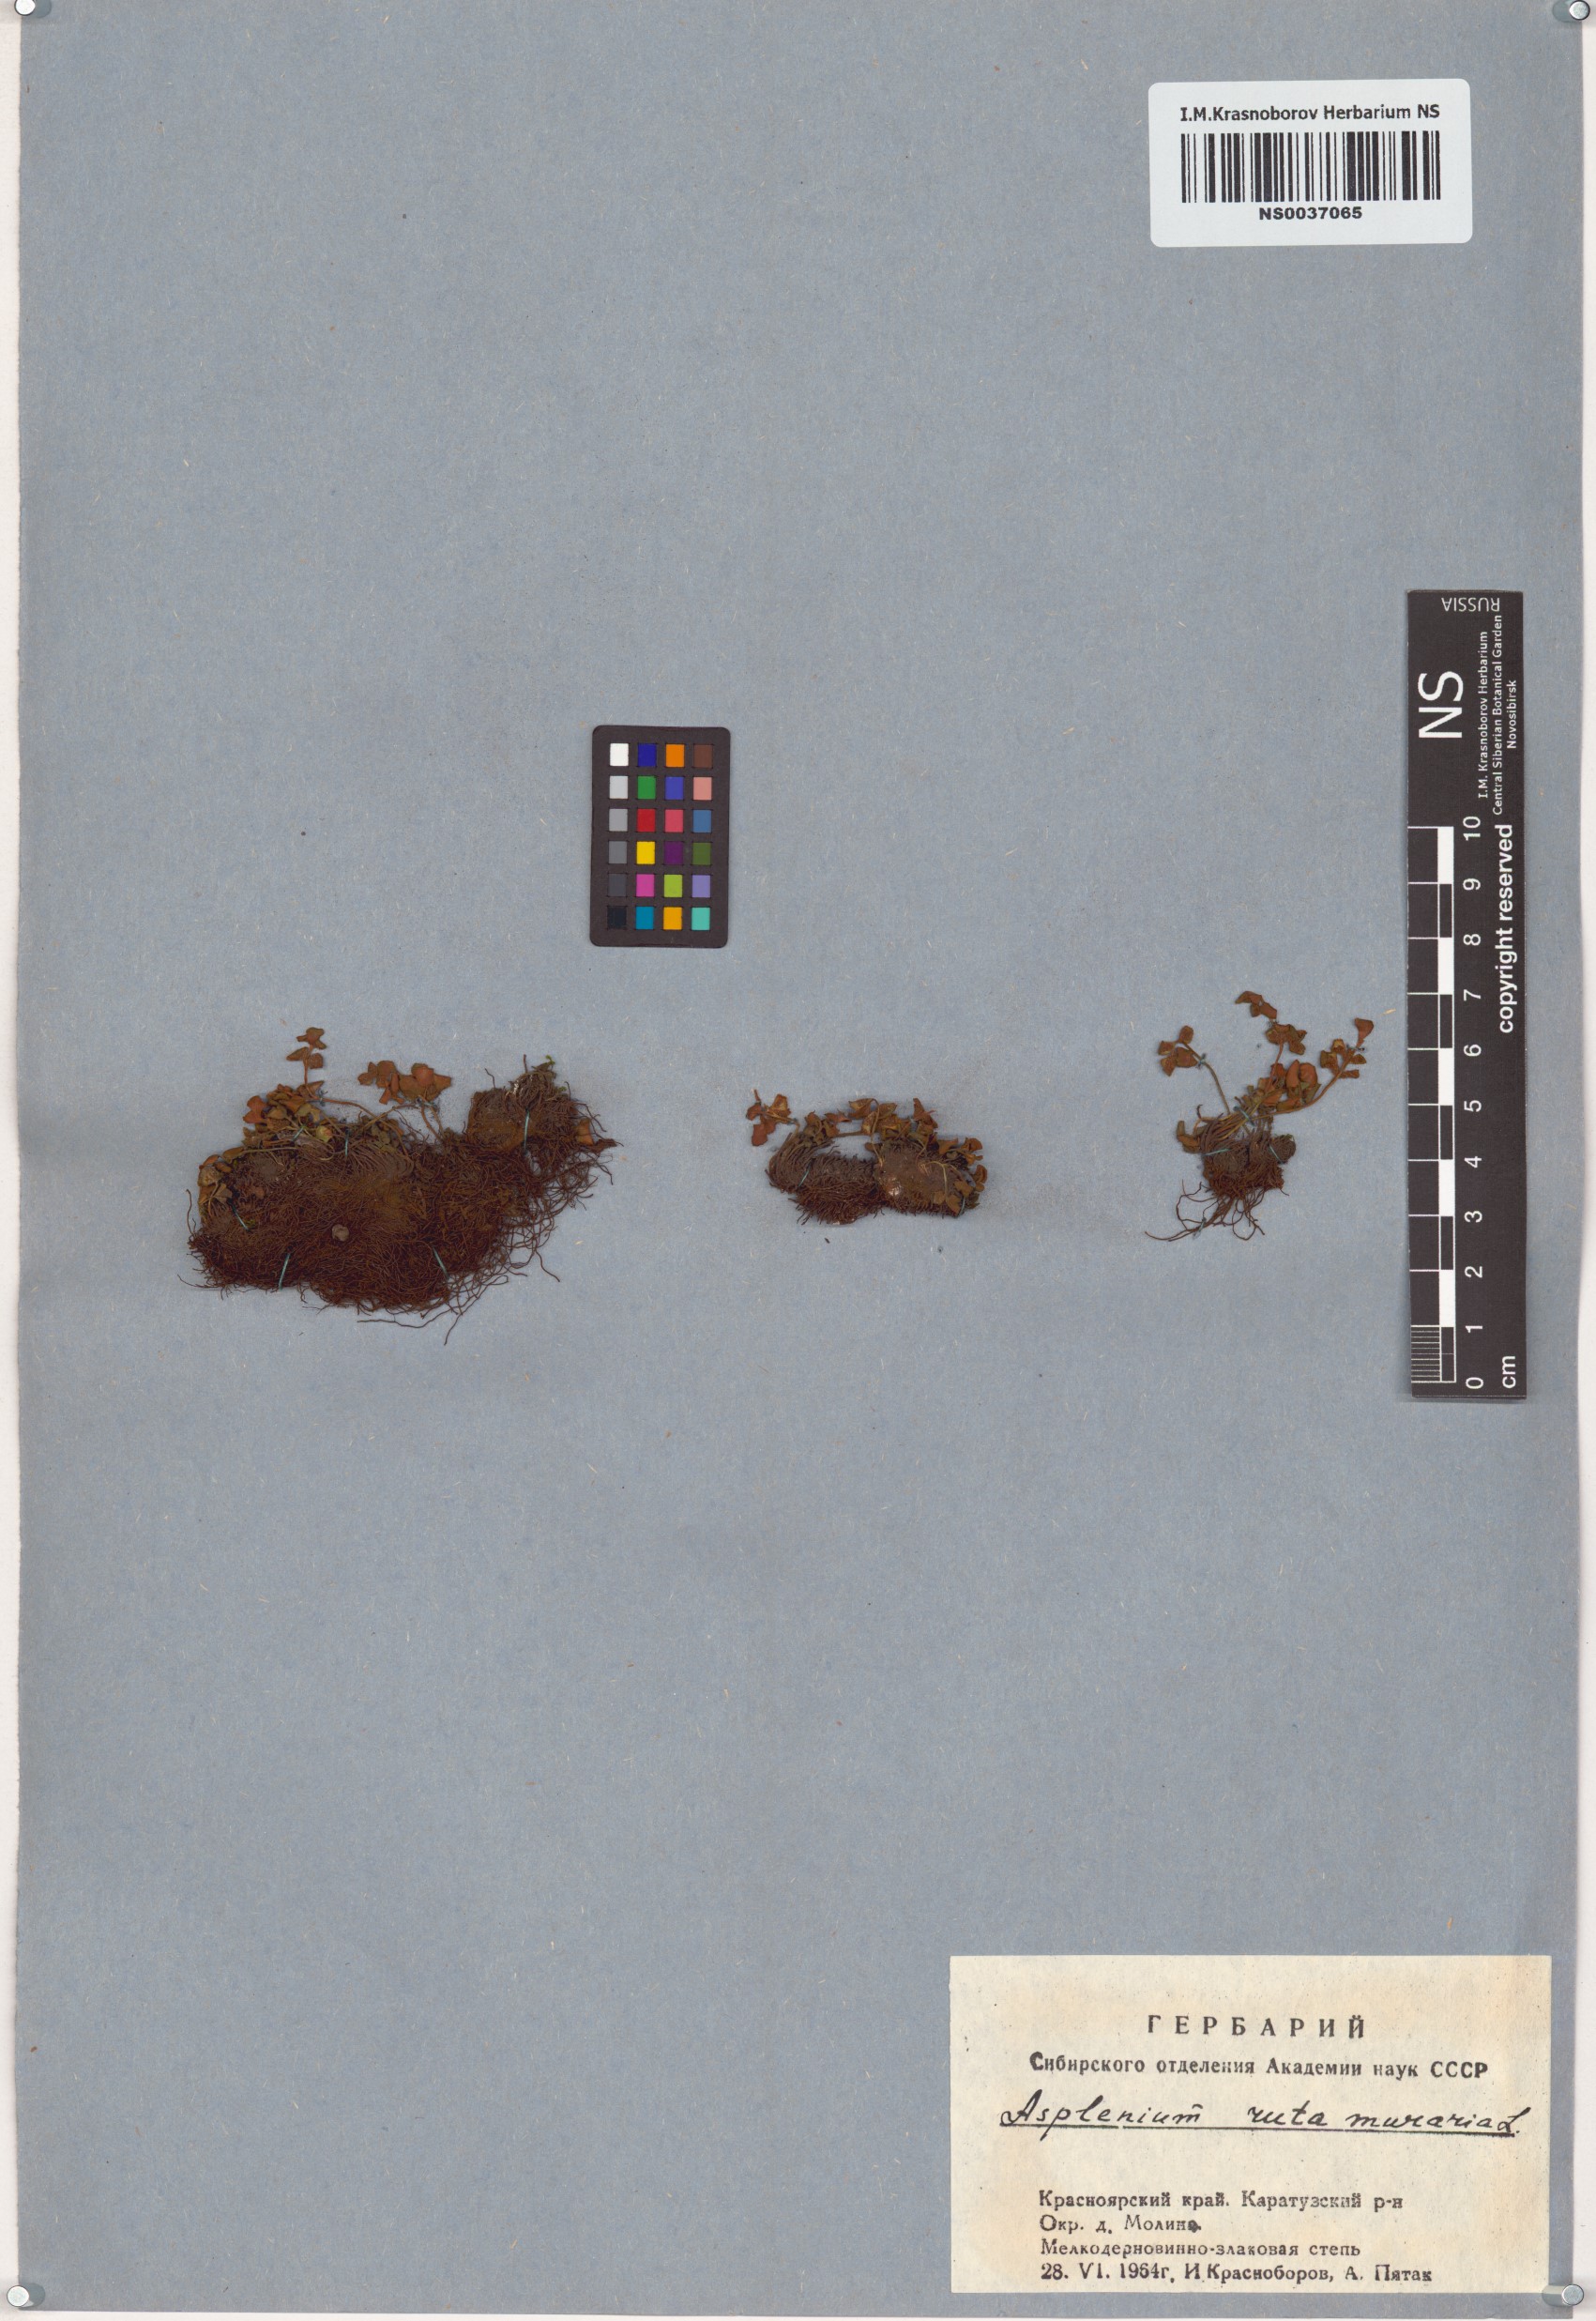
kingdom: Plantae
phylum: Tracheophyta
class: Polypodiopsida
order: Polypodiales
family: Aspleniaceae
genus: Asplenium
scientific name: Asplenium ruta-muraria
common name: Wall-rue
